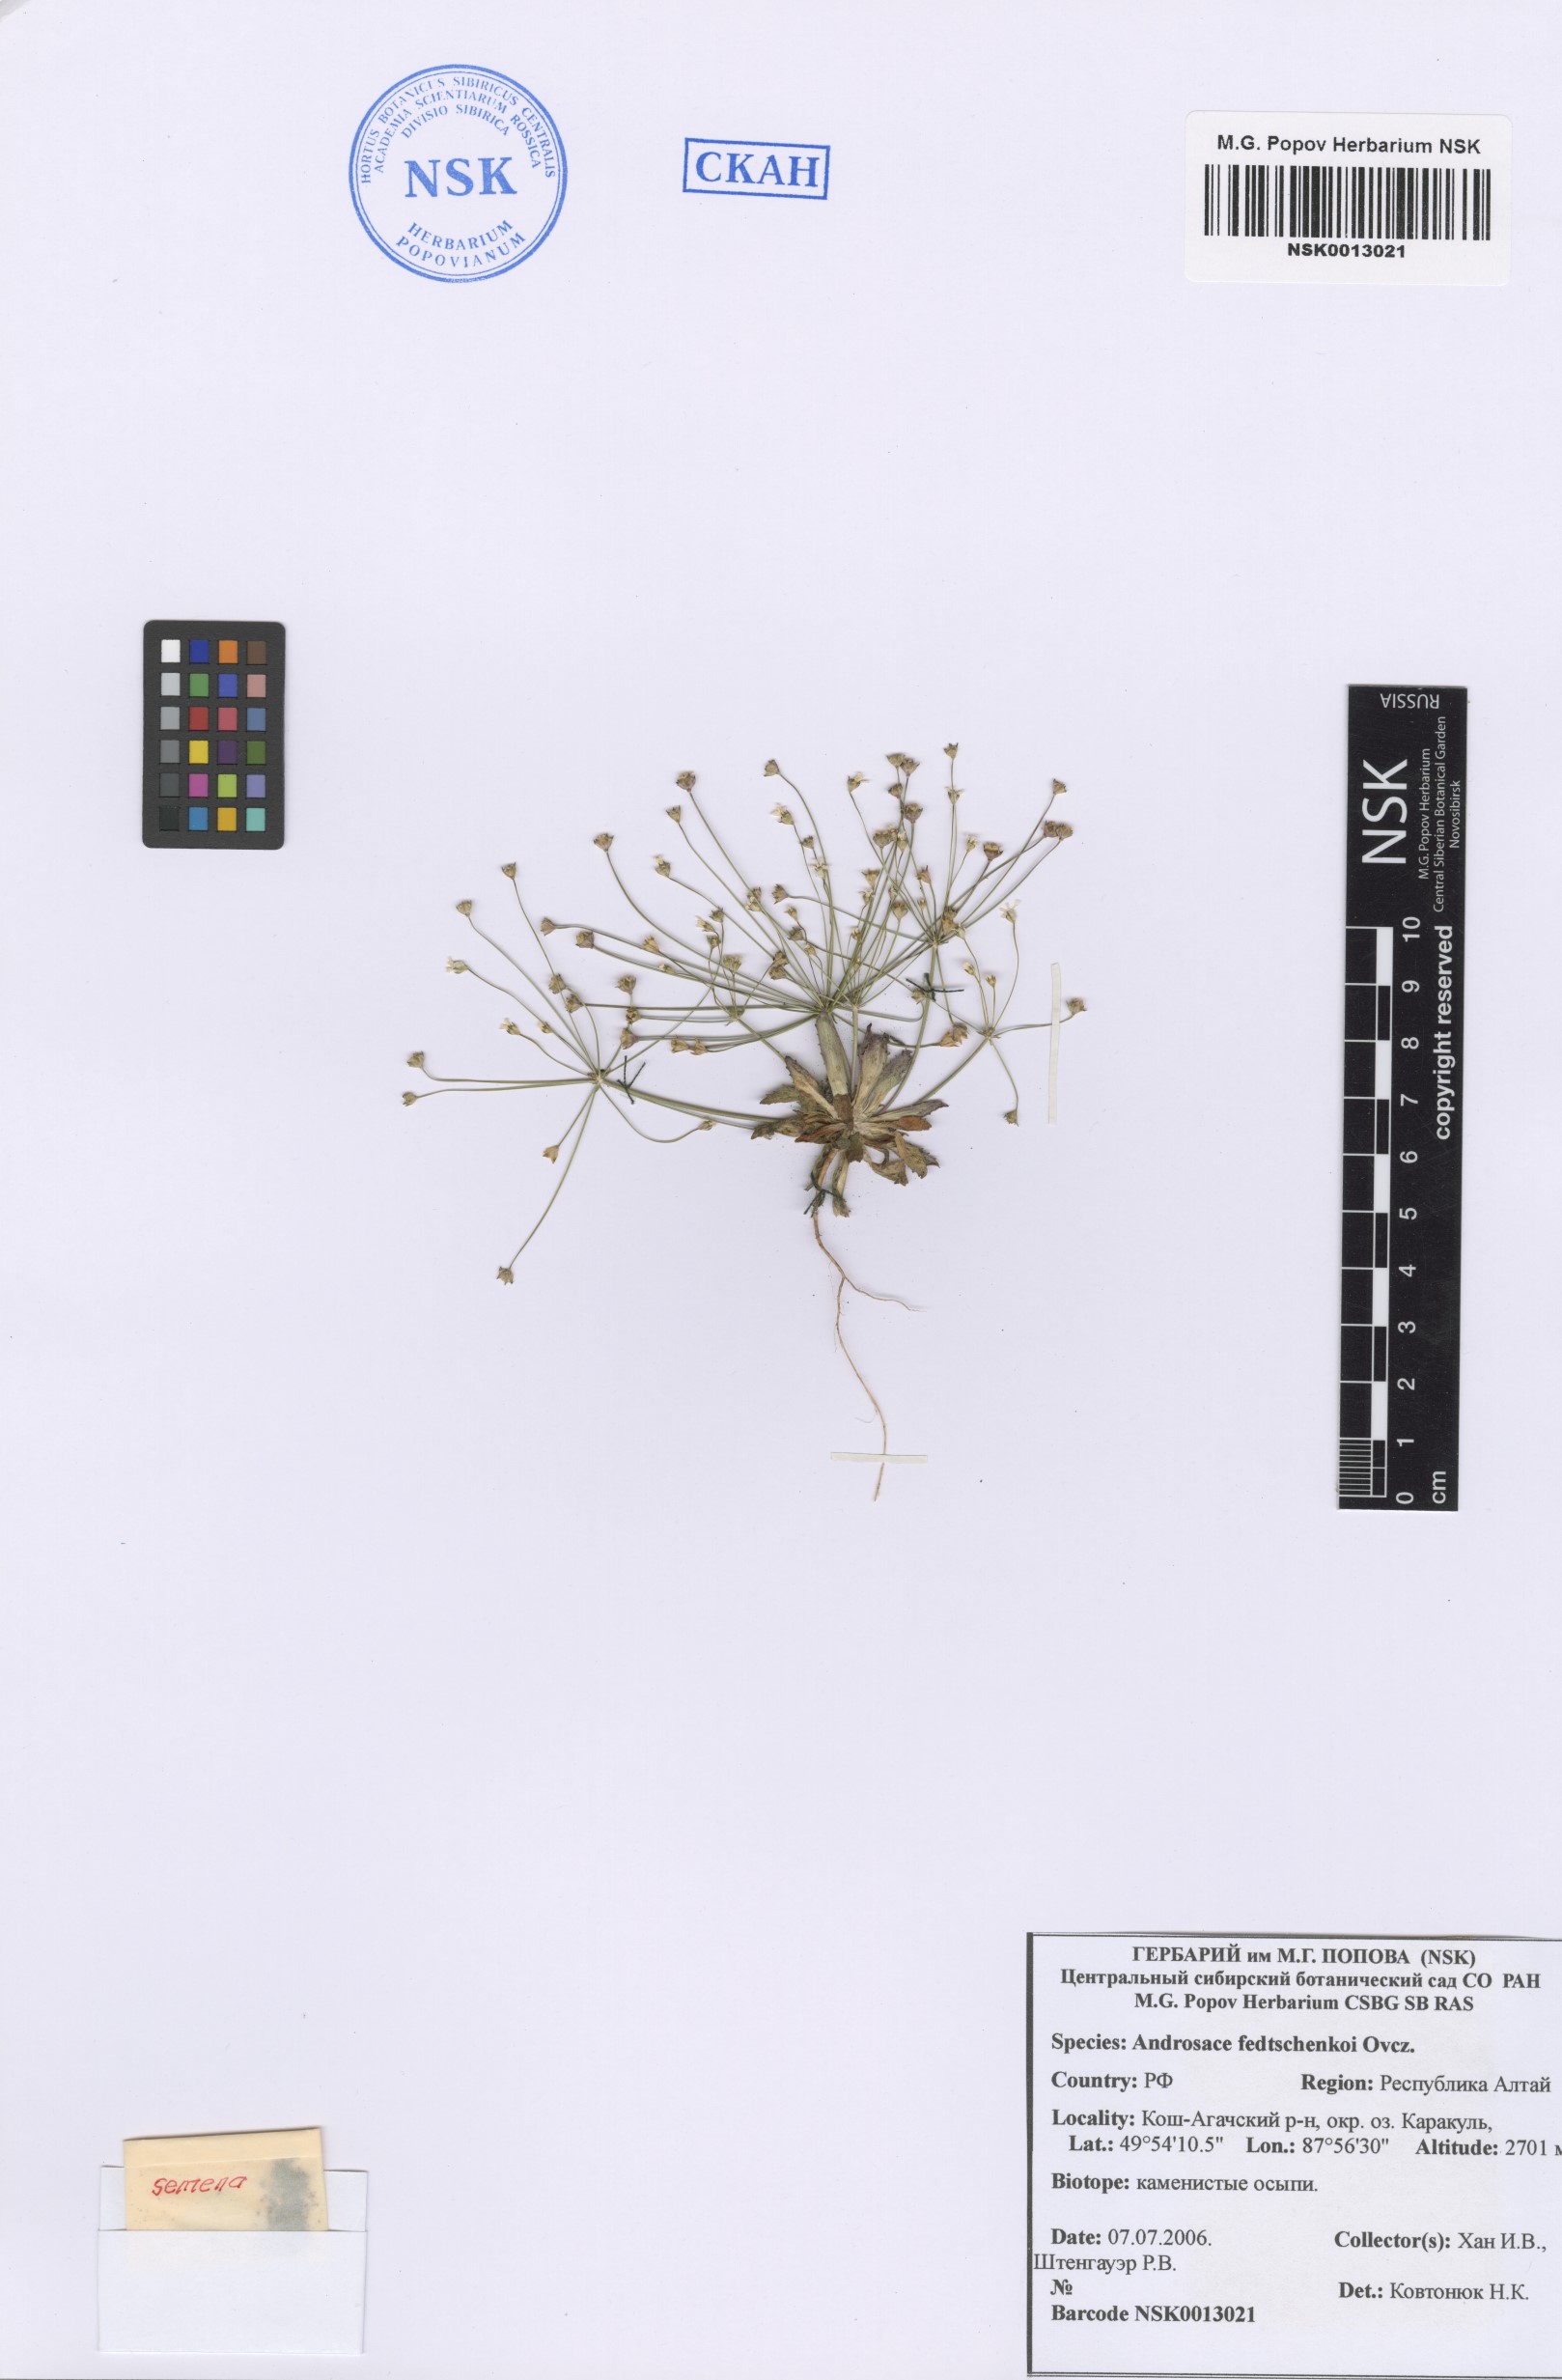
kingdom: Plantae
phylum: Tracheophyta
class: Magnoliopsida
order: Ericales
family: Primulaceae
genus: Androsace
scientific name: Androsace fedtschenkoi
